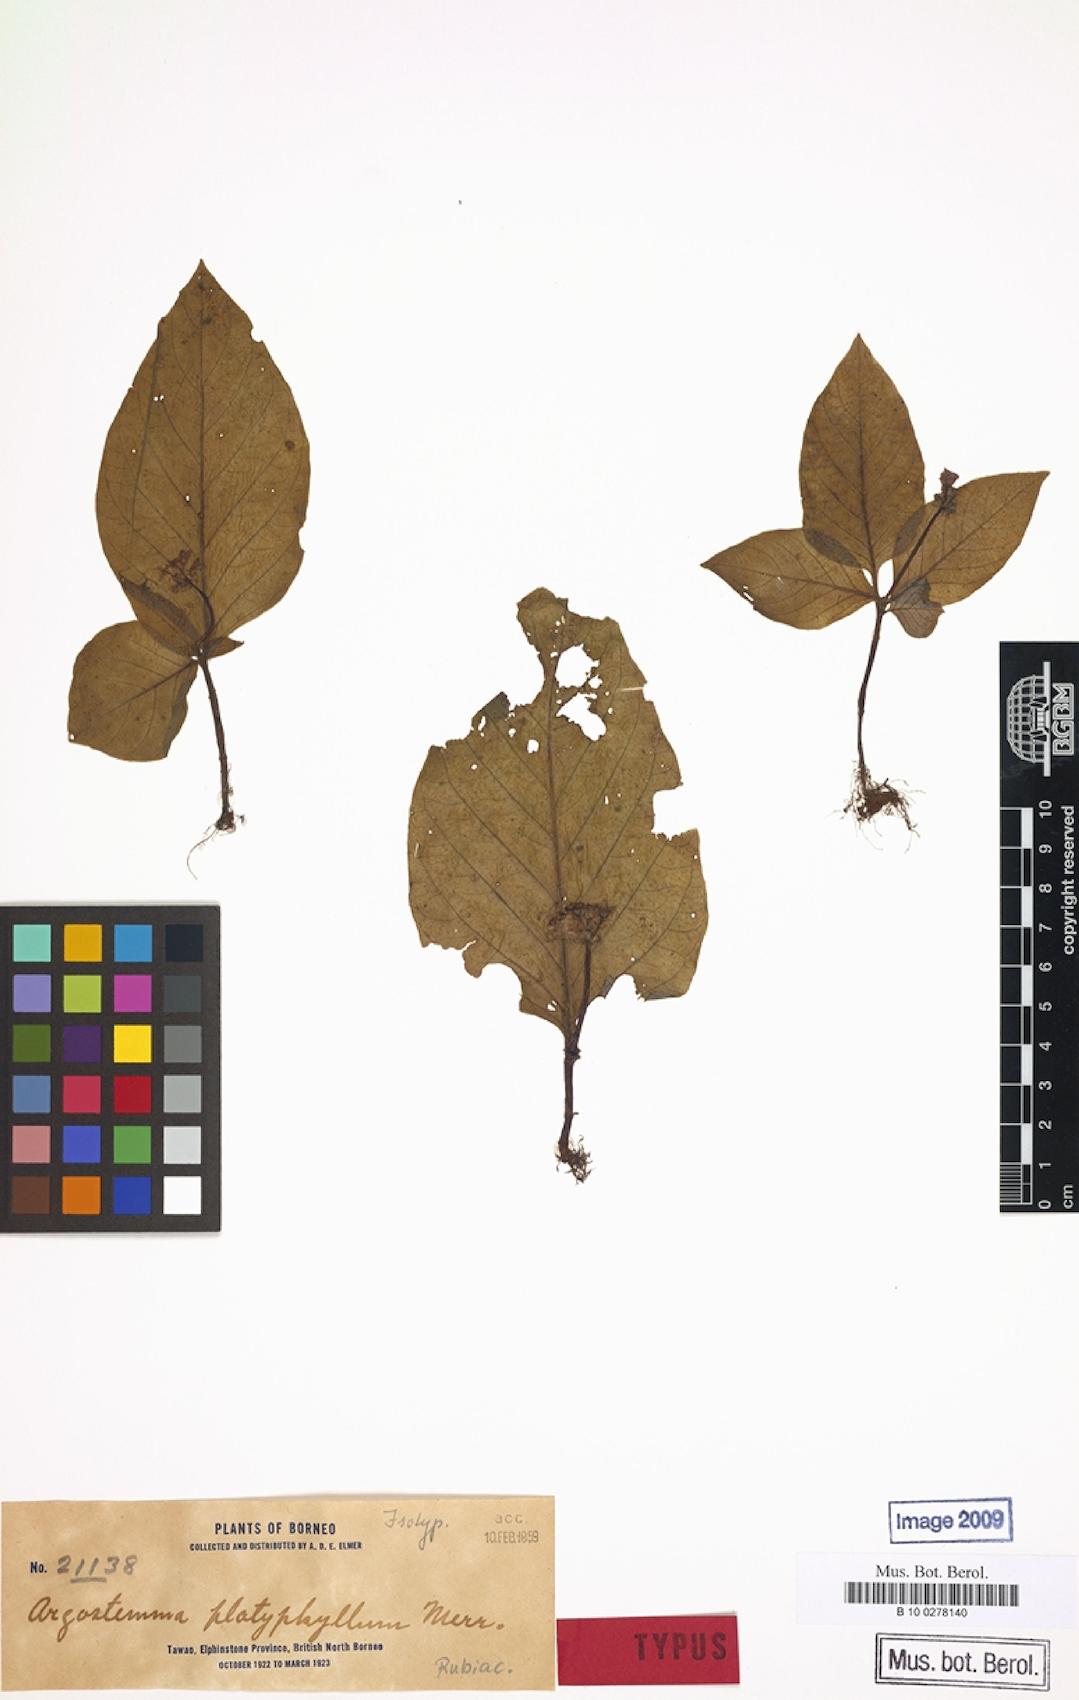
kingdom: Plantae
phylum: Tracheophyta
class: Magnoliopsida
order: Gentianales
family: Rubiaceae
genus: Argostemma
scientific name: Argostemma neurocalyx
